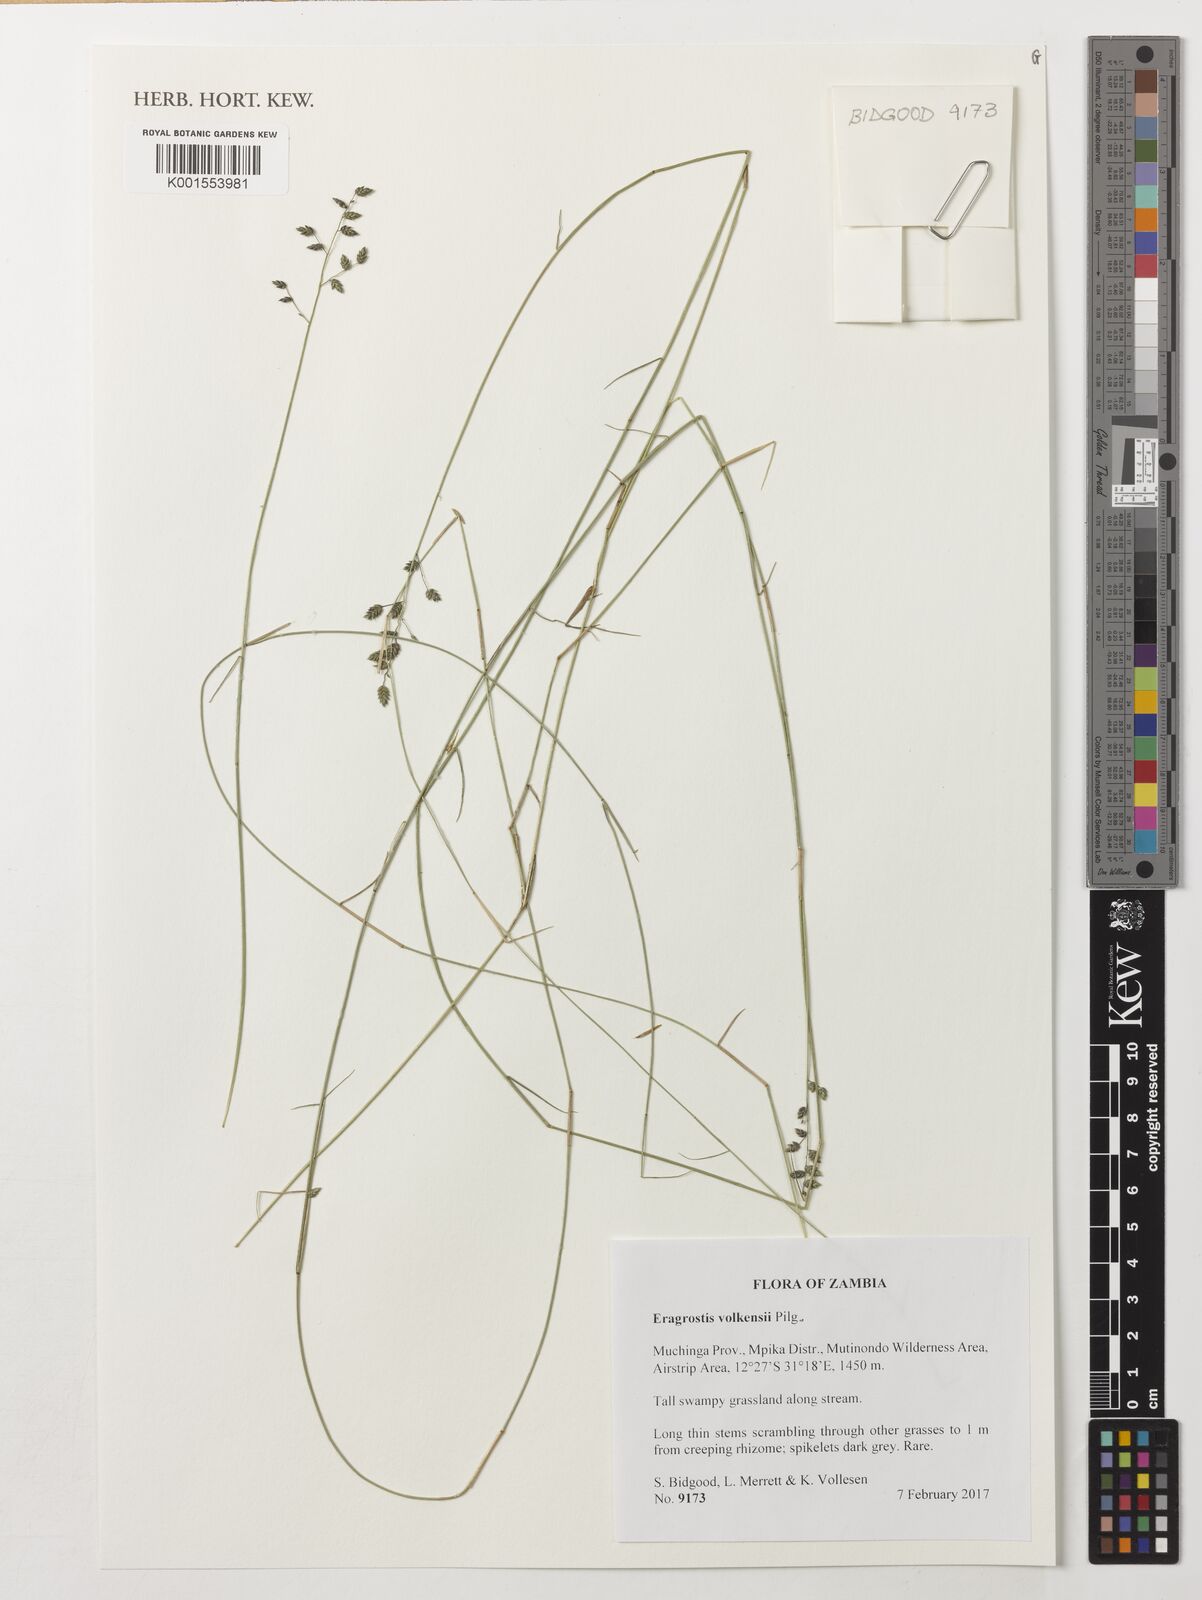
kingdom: Plantae
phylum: Tracheophyta
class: Liliopsida
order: Poales
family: Poaceae
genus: Eragrostis
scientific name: Eragrostis volkensii
